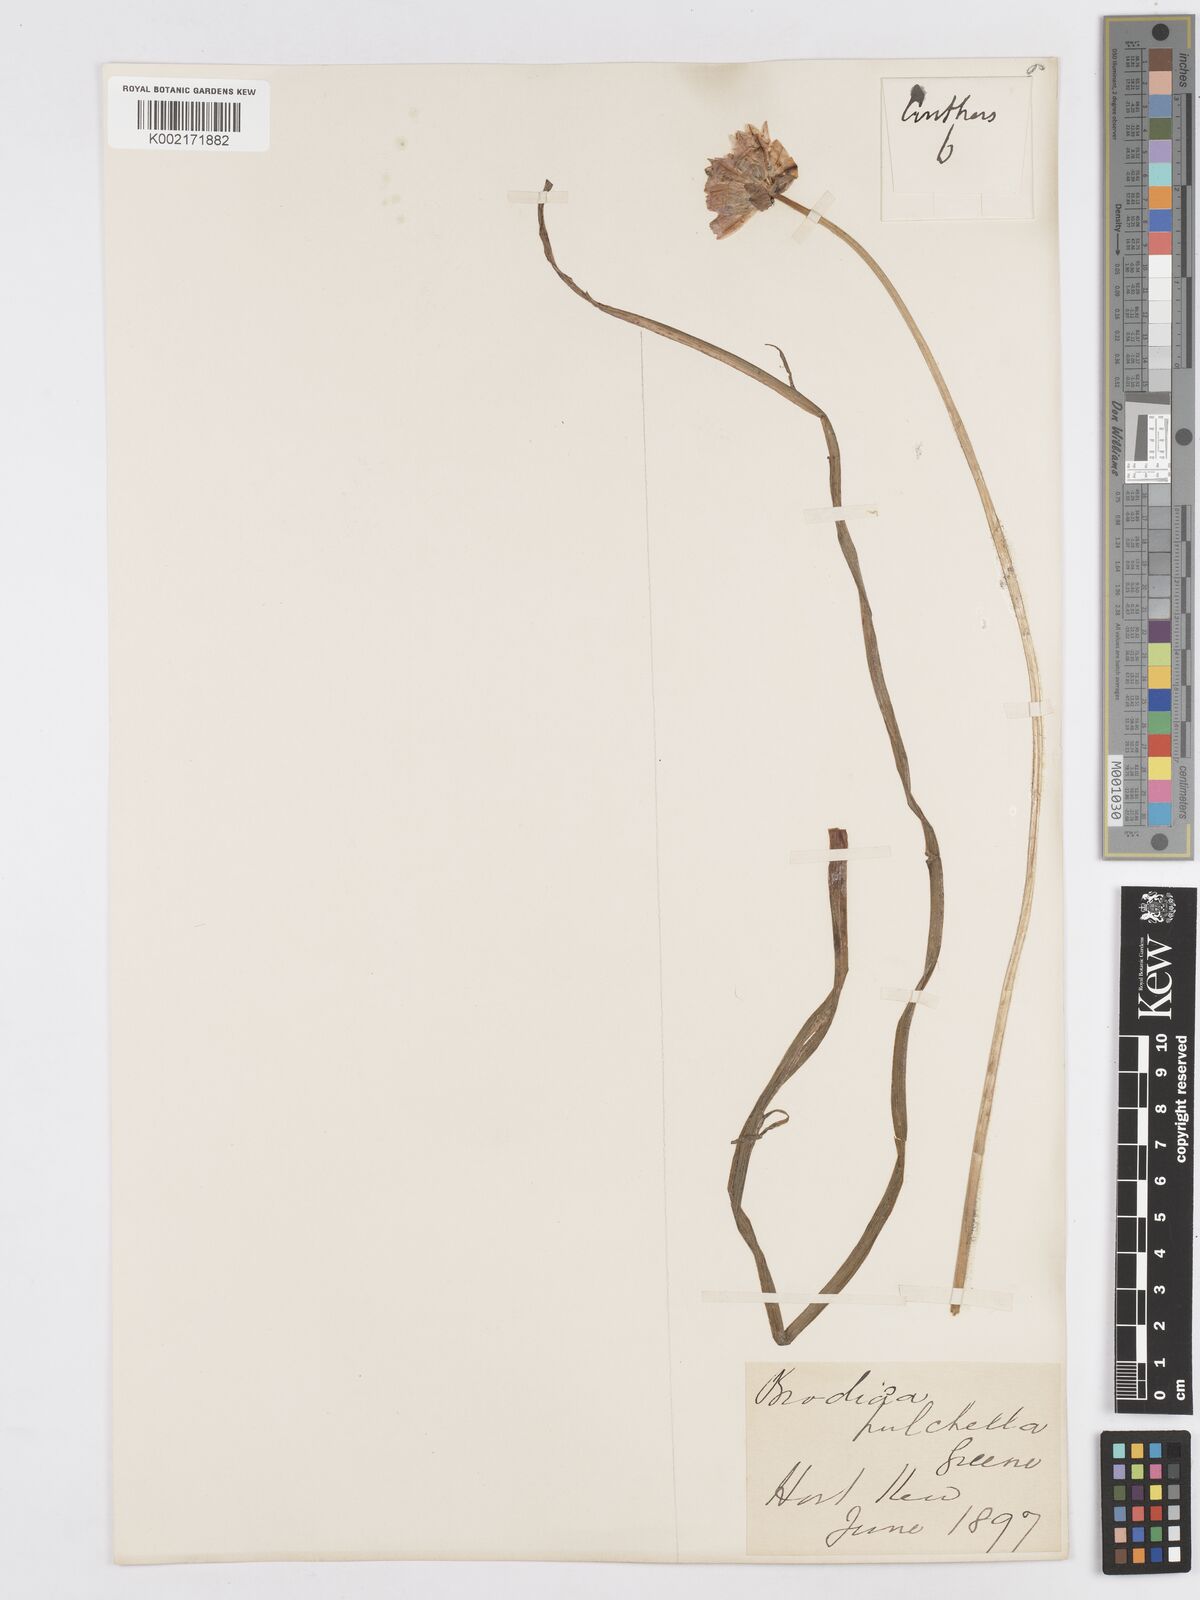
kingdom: Plantae
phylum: Tracheophyta
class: Liliopsida
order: Asparagales
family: Asparagaceae
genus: Dichelostemma
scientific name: Dichelostemma congestum
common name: Fork-tooth ookow
